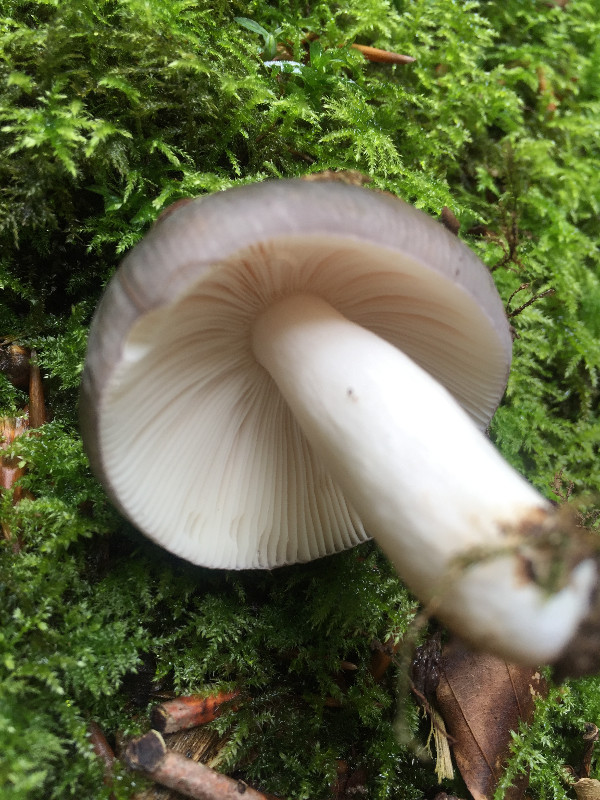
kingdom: Fungi
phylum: Basidiomycota
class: Agaricomycetes
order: Russulales
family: Russulaceae
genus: Russula
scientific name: Russula
